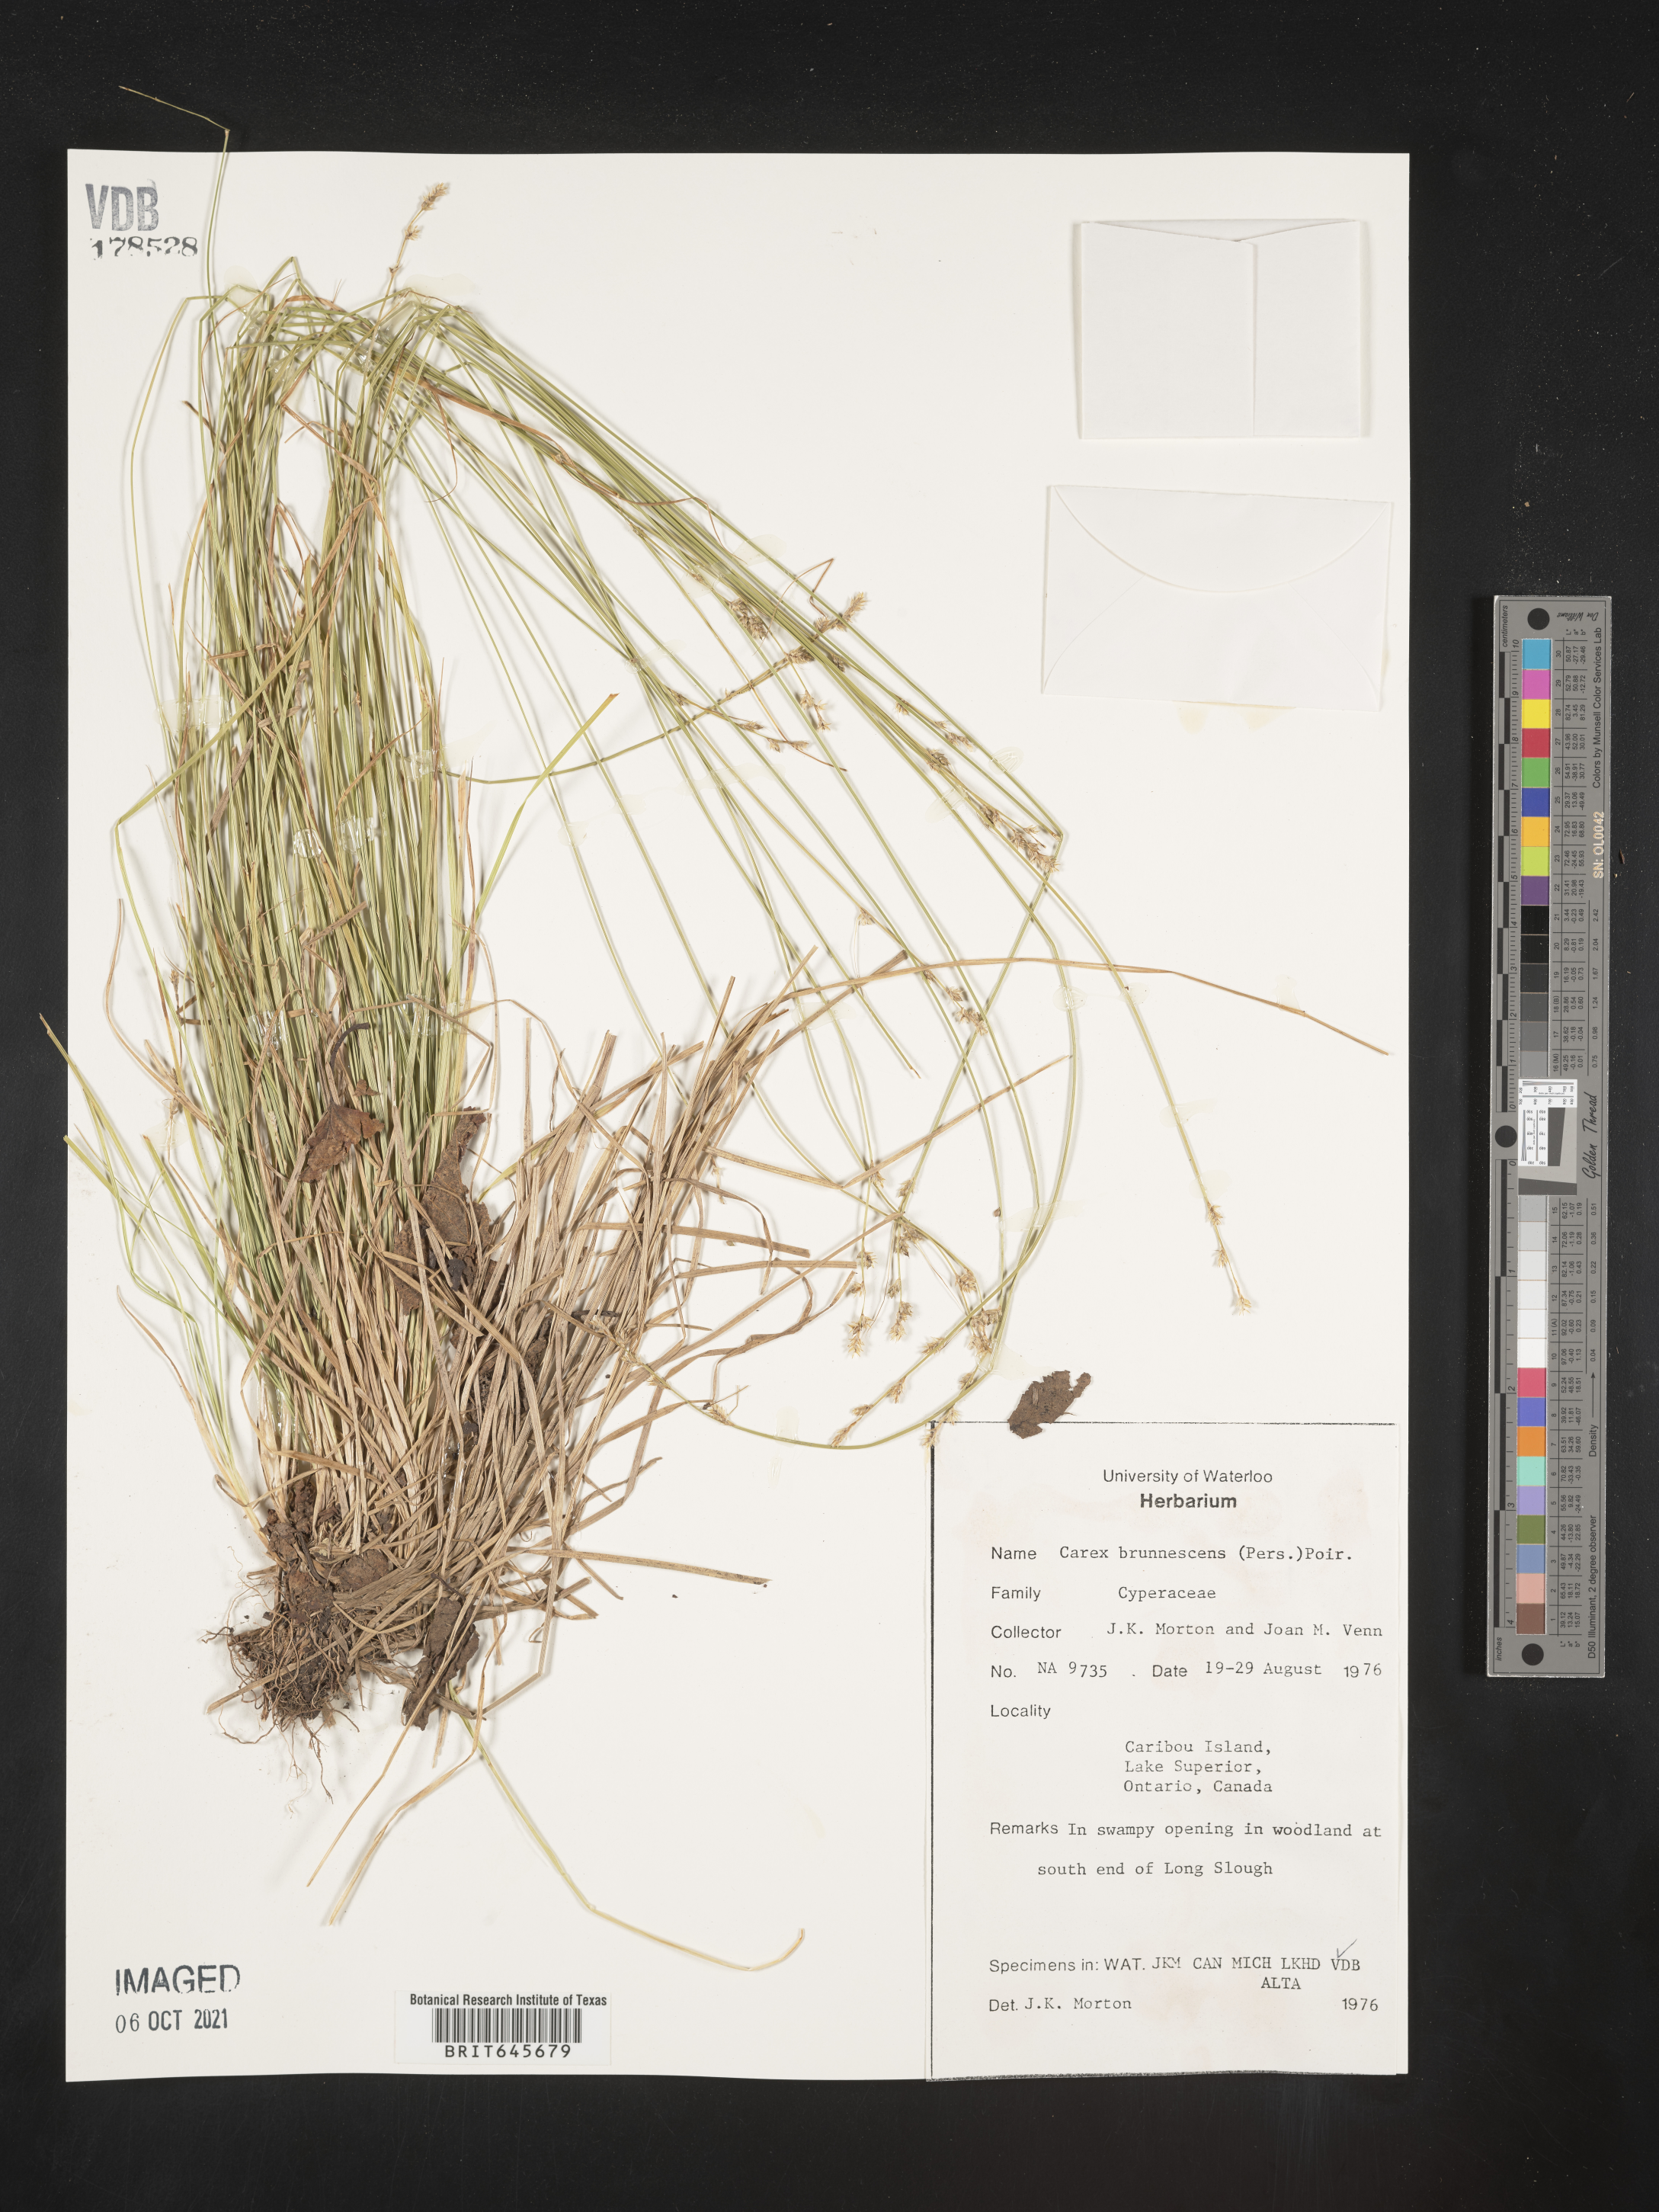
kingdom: Plantae
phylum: Tracheophyta
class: Liliopsida
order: Poales
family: Cyperaceae
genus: Carex
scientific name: Carex brunnescens
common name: Brown sedge
